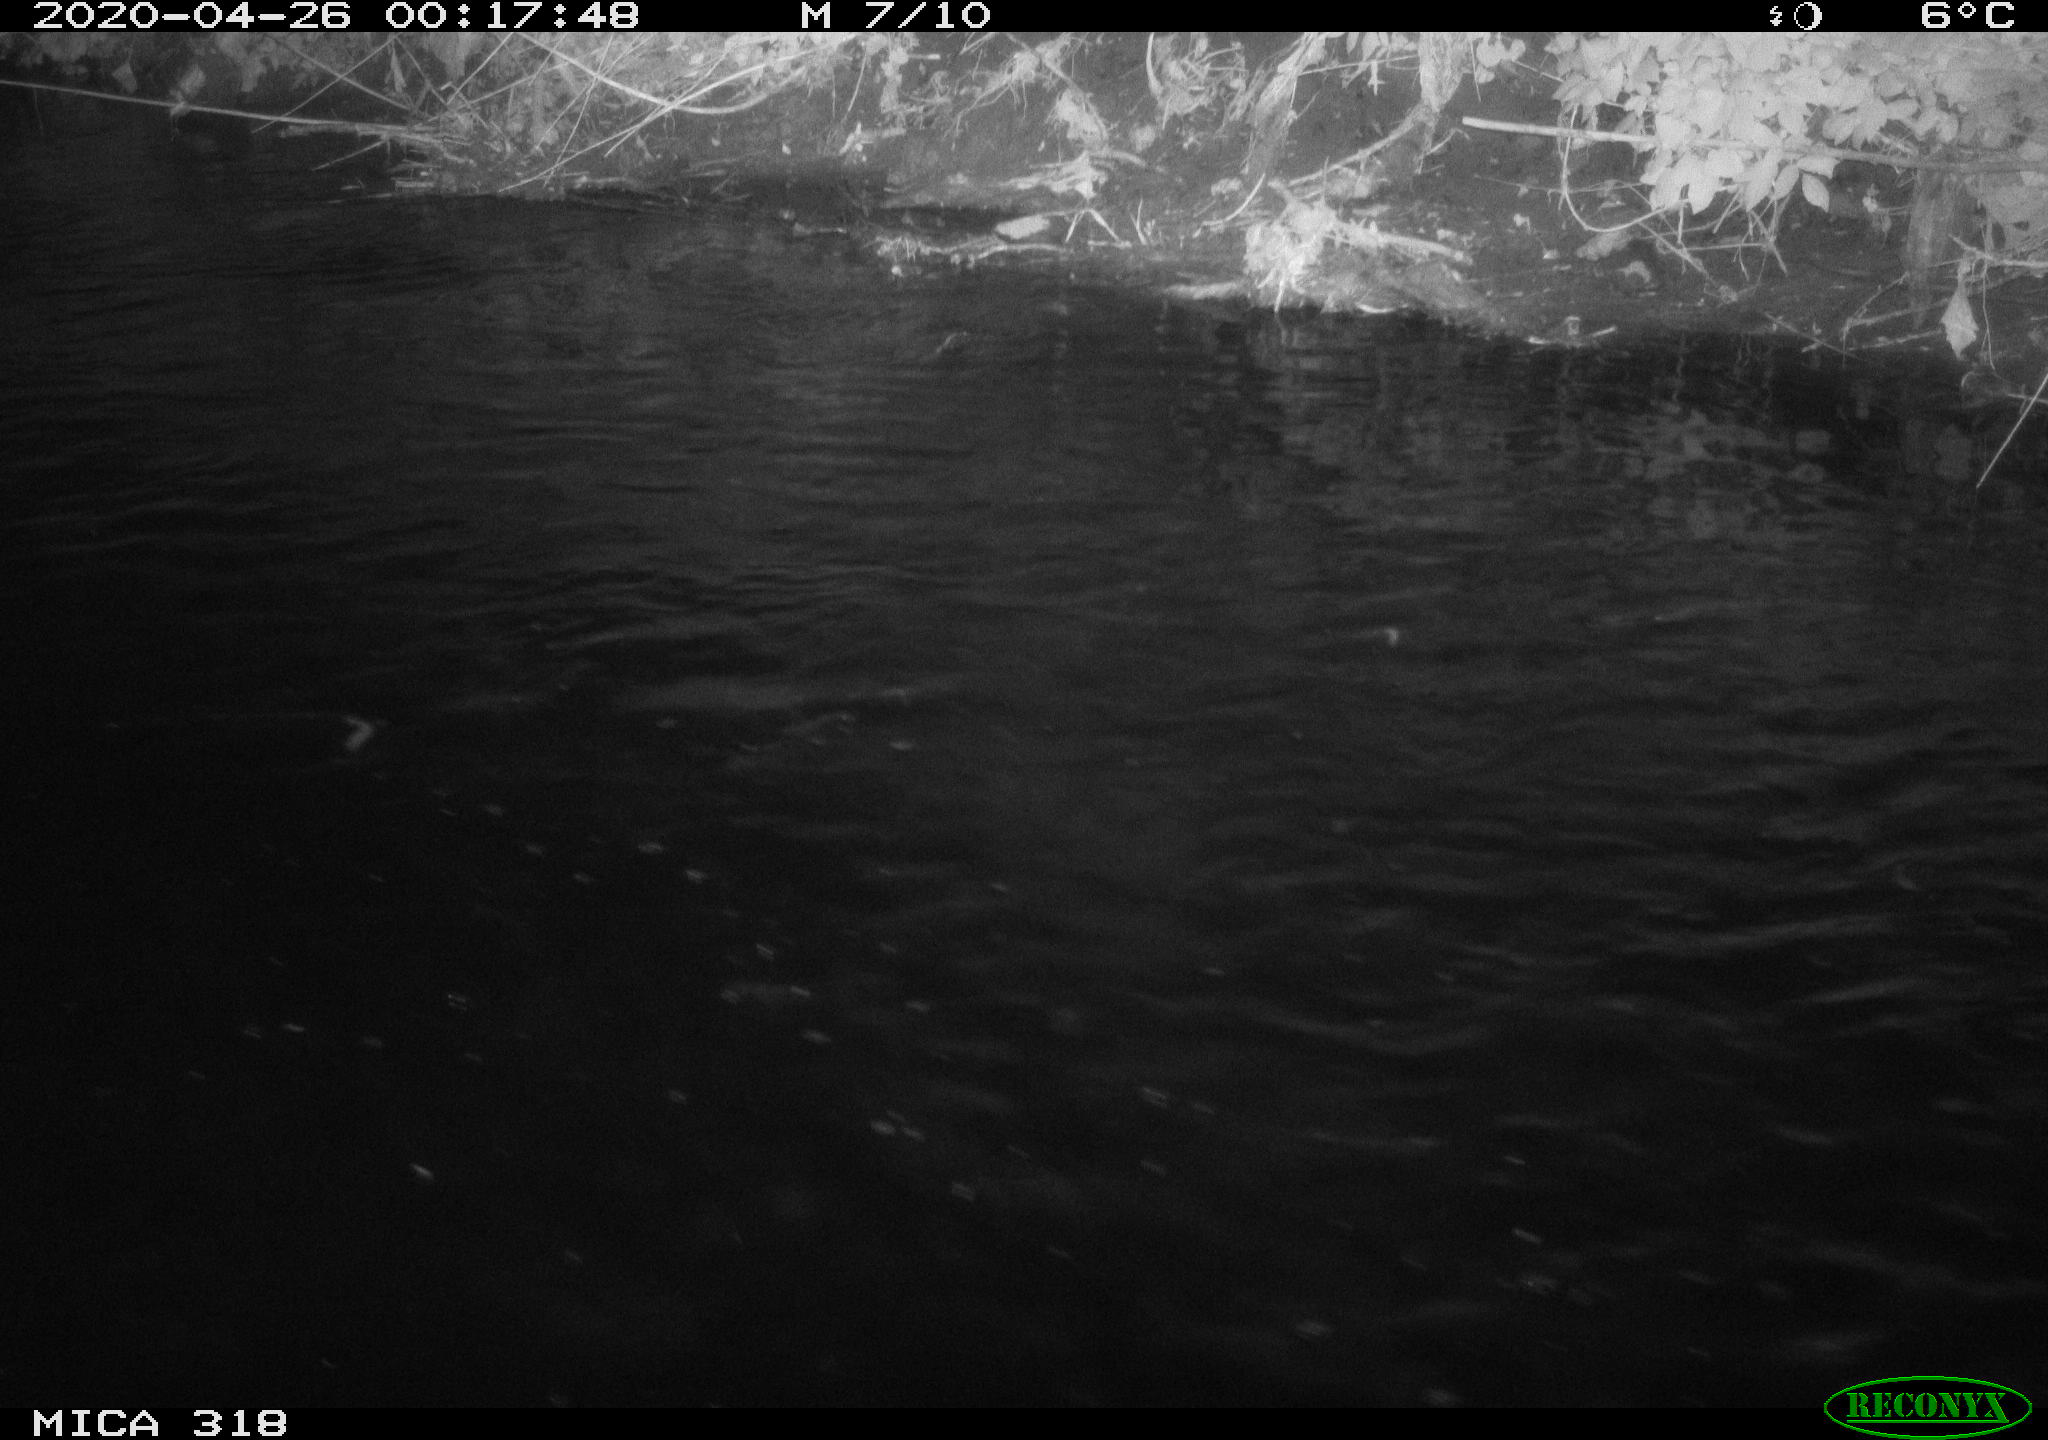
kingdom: Animalia
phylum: Chordata
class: Aves
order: Pelecaniformes
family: Ardeidae
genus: Ardea
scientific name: Ardea cinerea
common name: Grey heron
